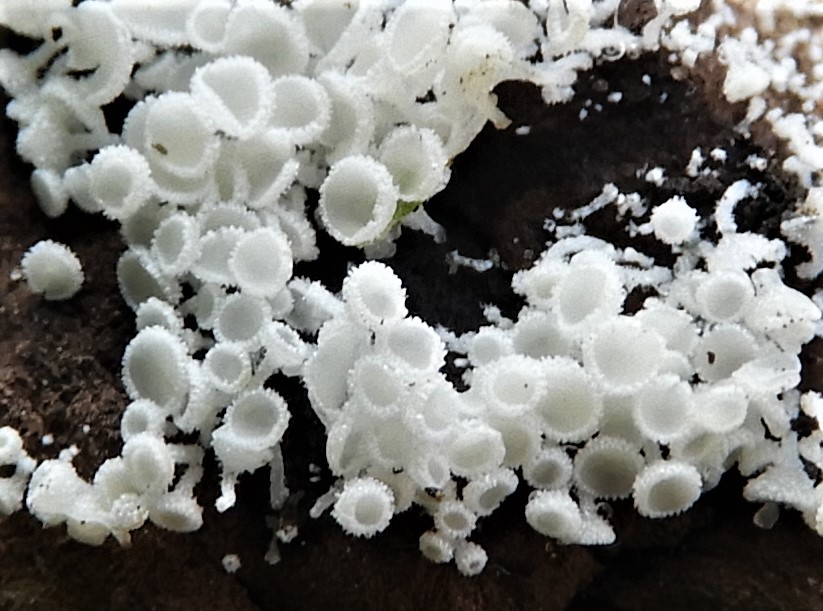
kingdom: Fungi
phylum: Ascomycota
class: Leotiomycetes
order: Helotiales
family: Lachnaceae
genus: Lachnum
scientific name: Lachnum
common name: frynseskive
